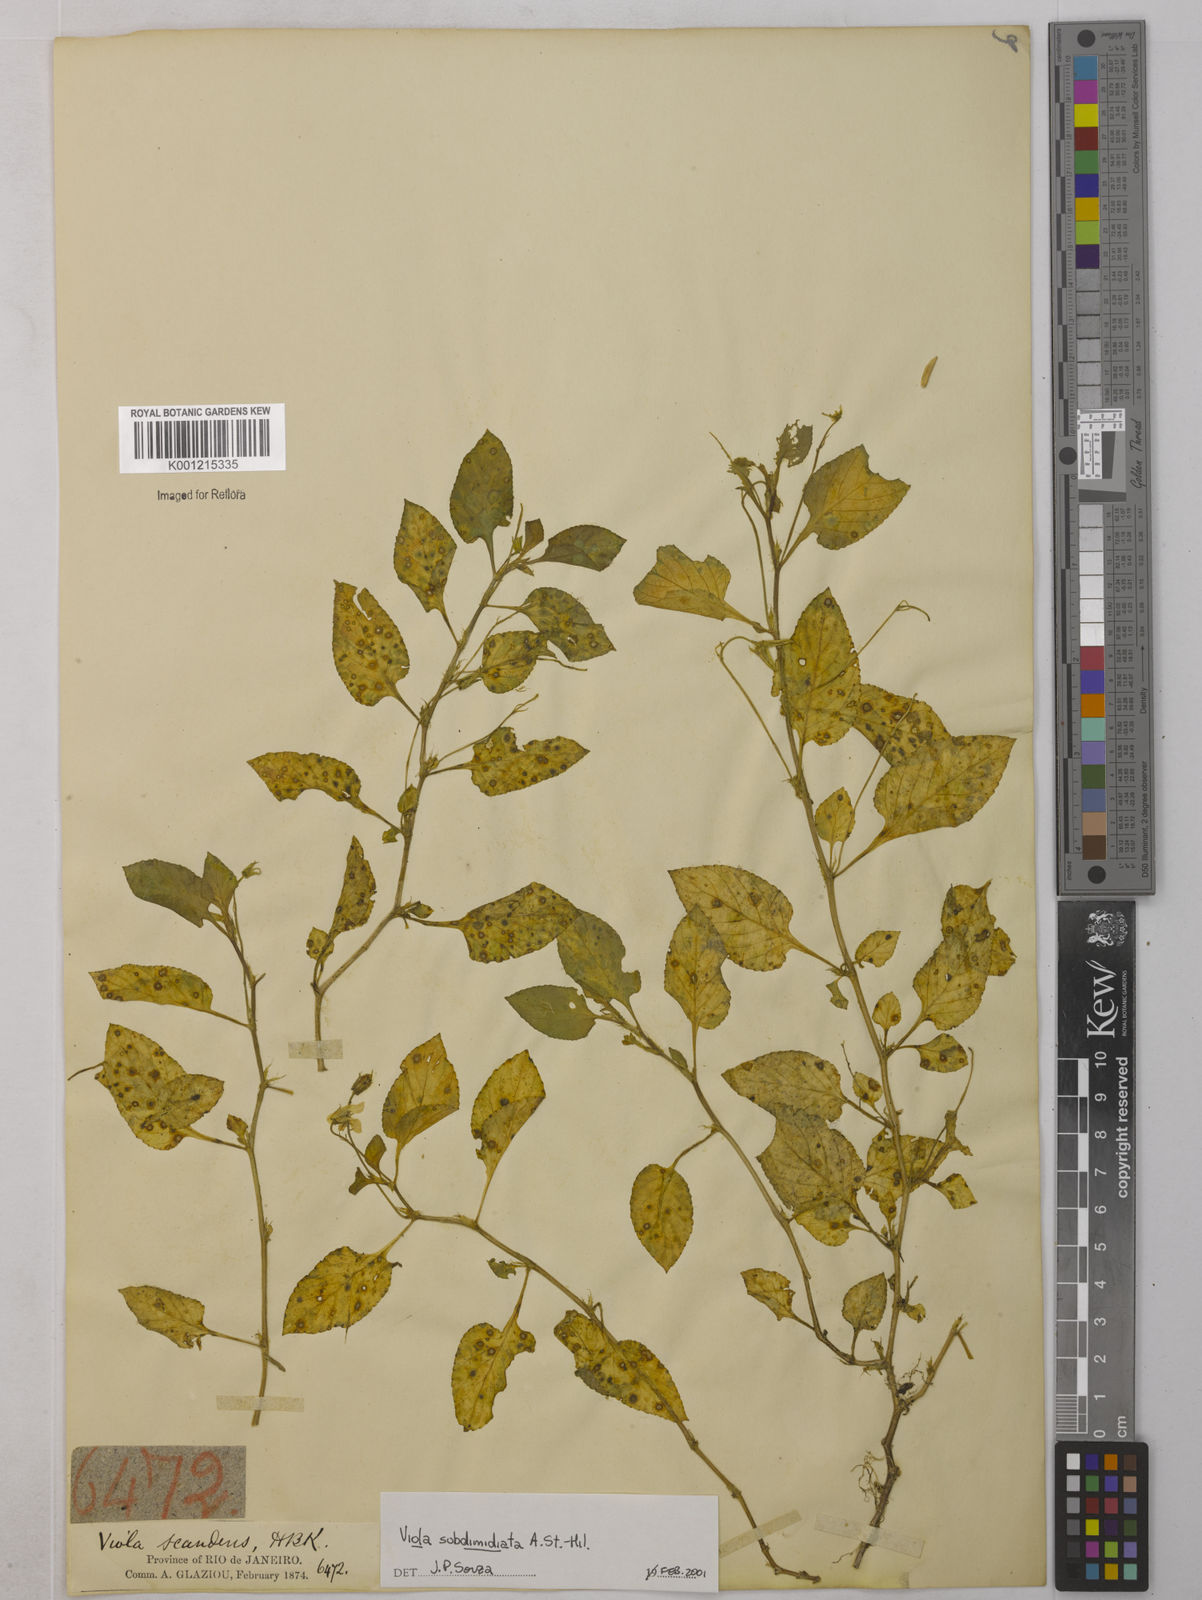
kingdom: Plantae
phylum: Tracheophyta
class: Magnoliopsida
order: Malpighiales
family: Violaceae
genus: Viola
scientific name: Viola subdimidiata
